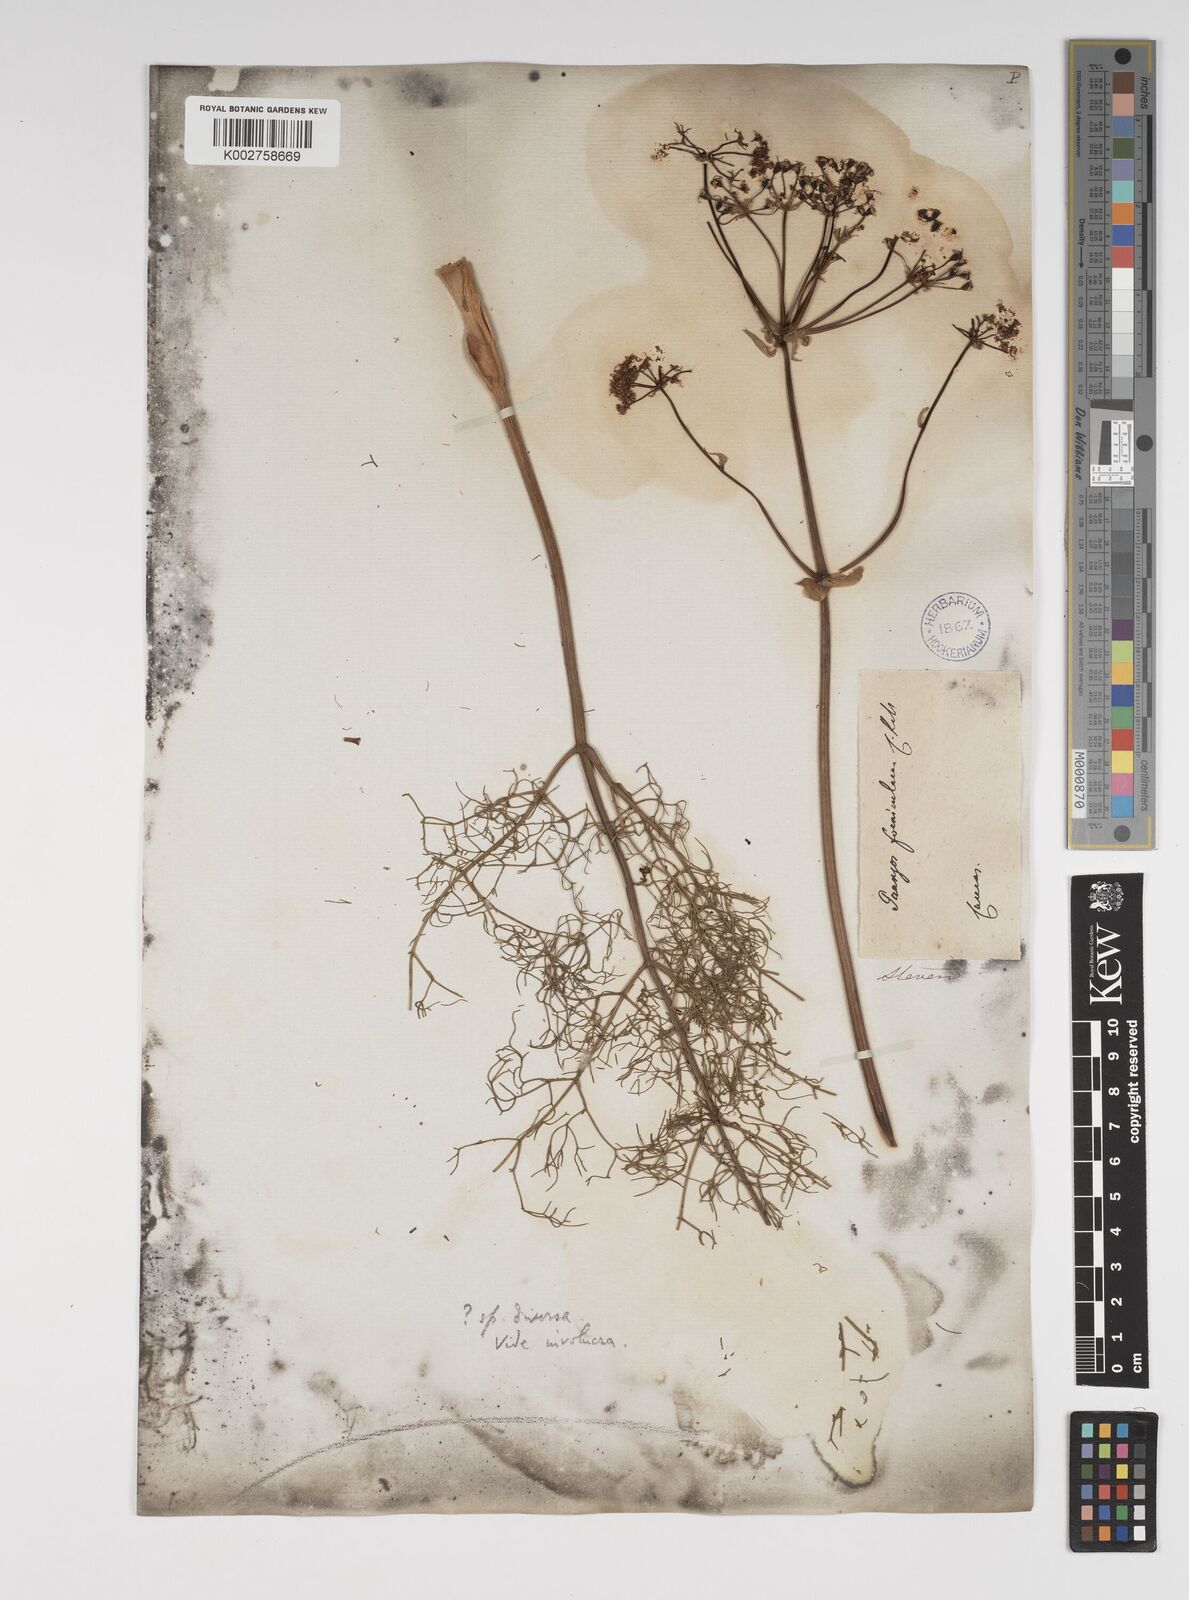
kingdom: Plantae
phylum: Tracheophyta
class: Magnoliopsida
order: Apiales
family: Apiaceae
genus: Prangos
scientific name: Prangos ferulacea
